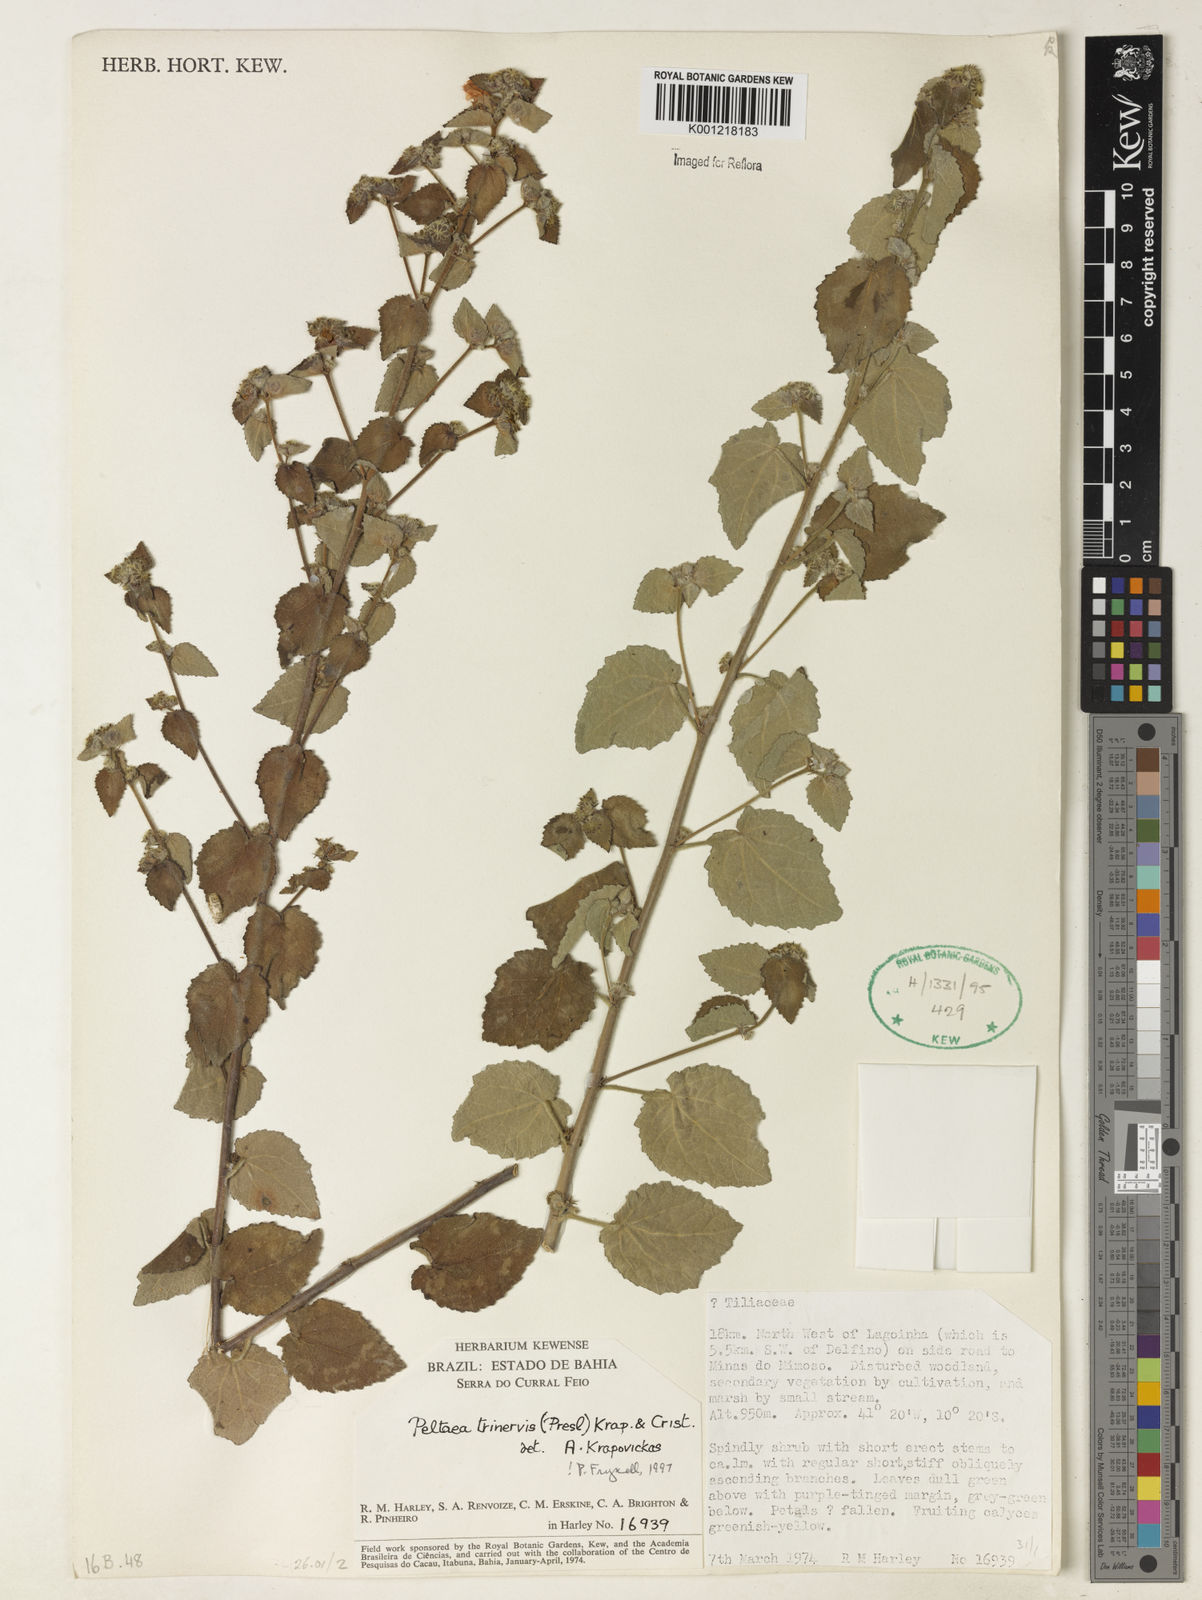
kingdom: Plantae
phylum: Tracheophyta
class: Magnoliopsida
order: Malvales
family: Malvaceae
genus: Peltaea
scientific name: Peltaea
